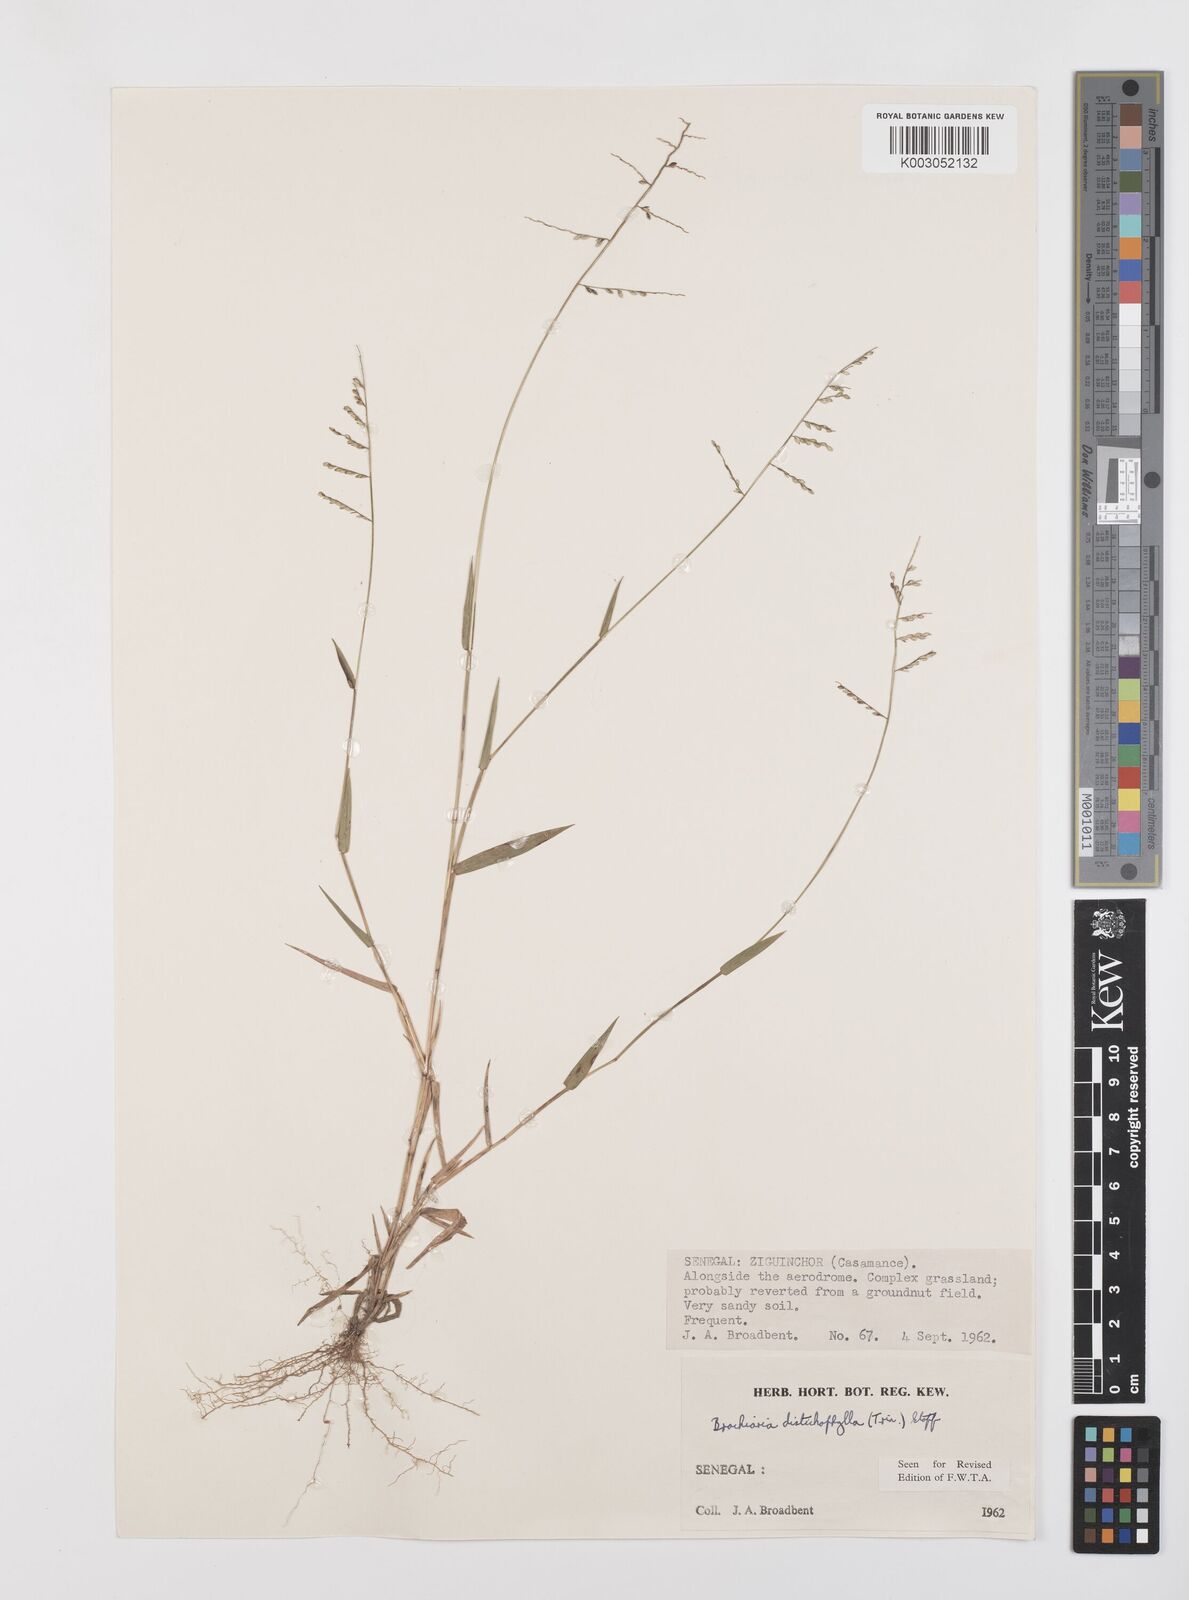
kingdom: Plantae
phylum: Tracheophyta
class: Liliopsida
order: Poales
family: Poaceae
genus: Urochloa
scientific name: Urochloa villosa
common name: Hairy signalgrass
